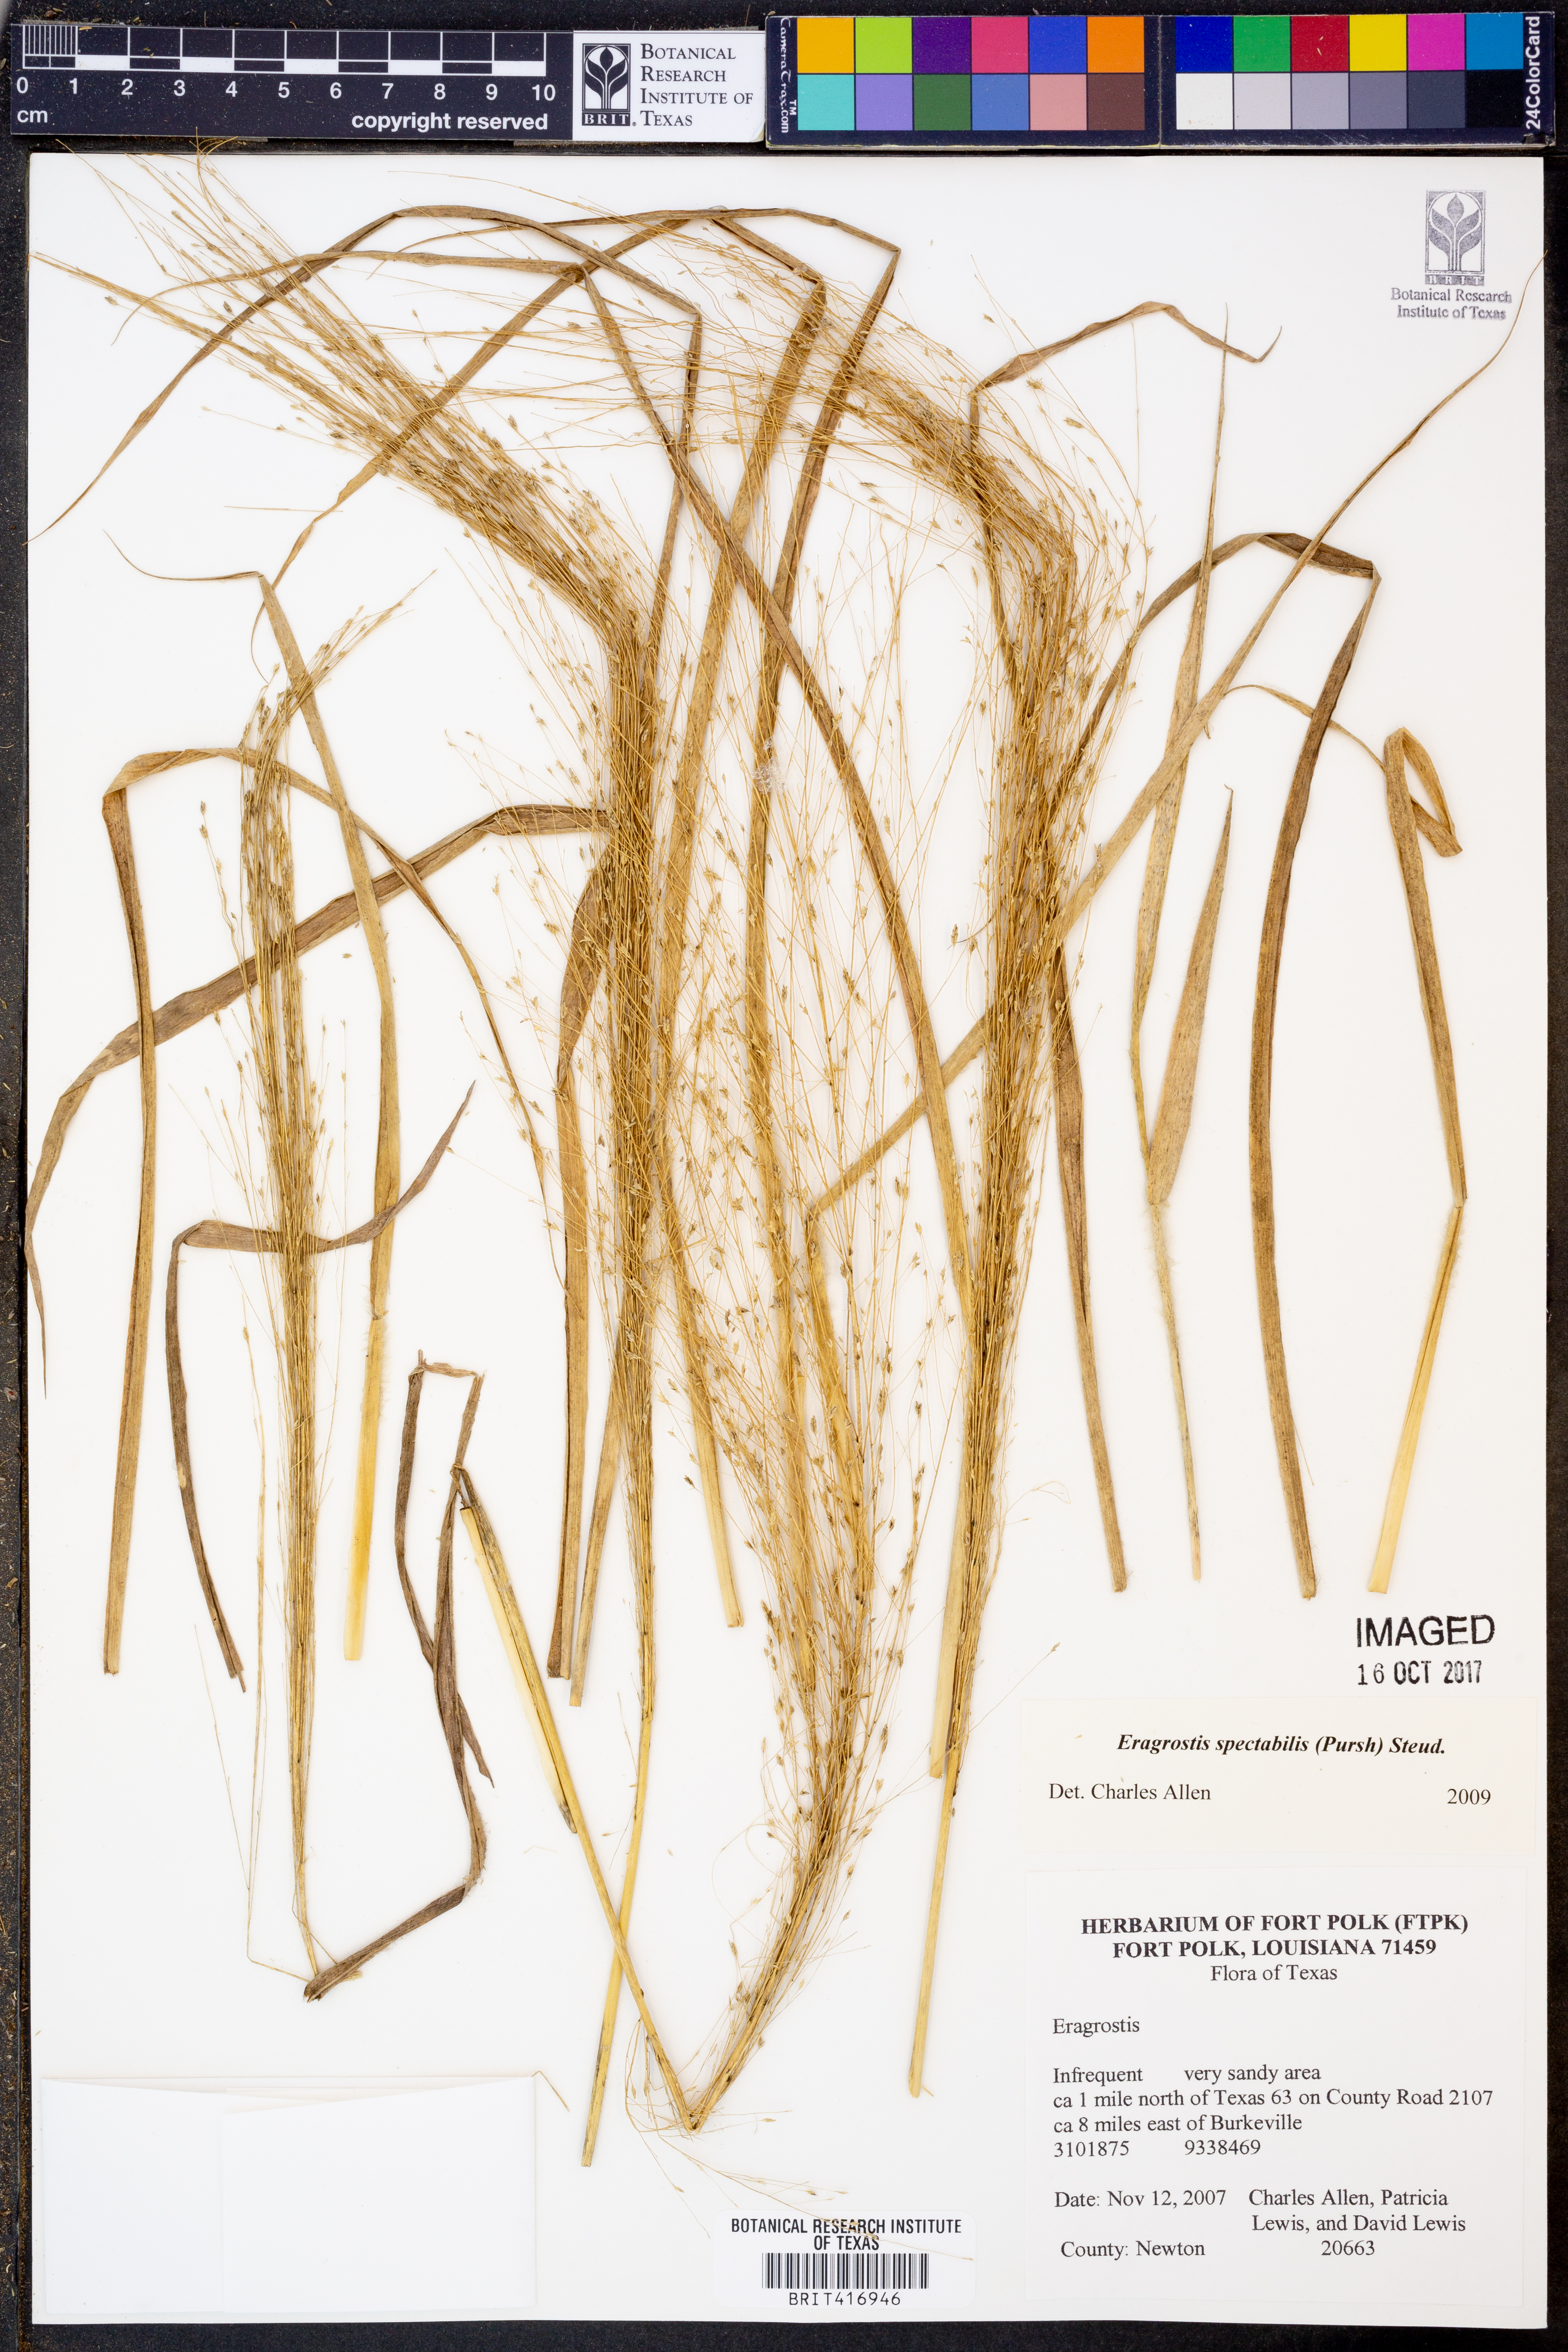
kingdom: Plantae
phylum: Tracheophyta
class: Liliopsida
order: Poales
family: Poaceae
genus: Eragrostis
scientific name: Eragrostis spectabilis
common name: Petticoat-climber
